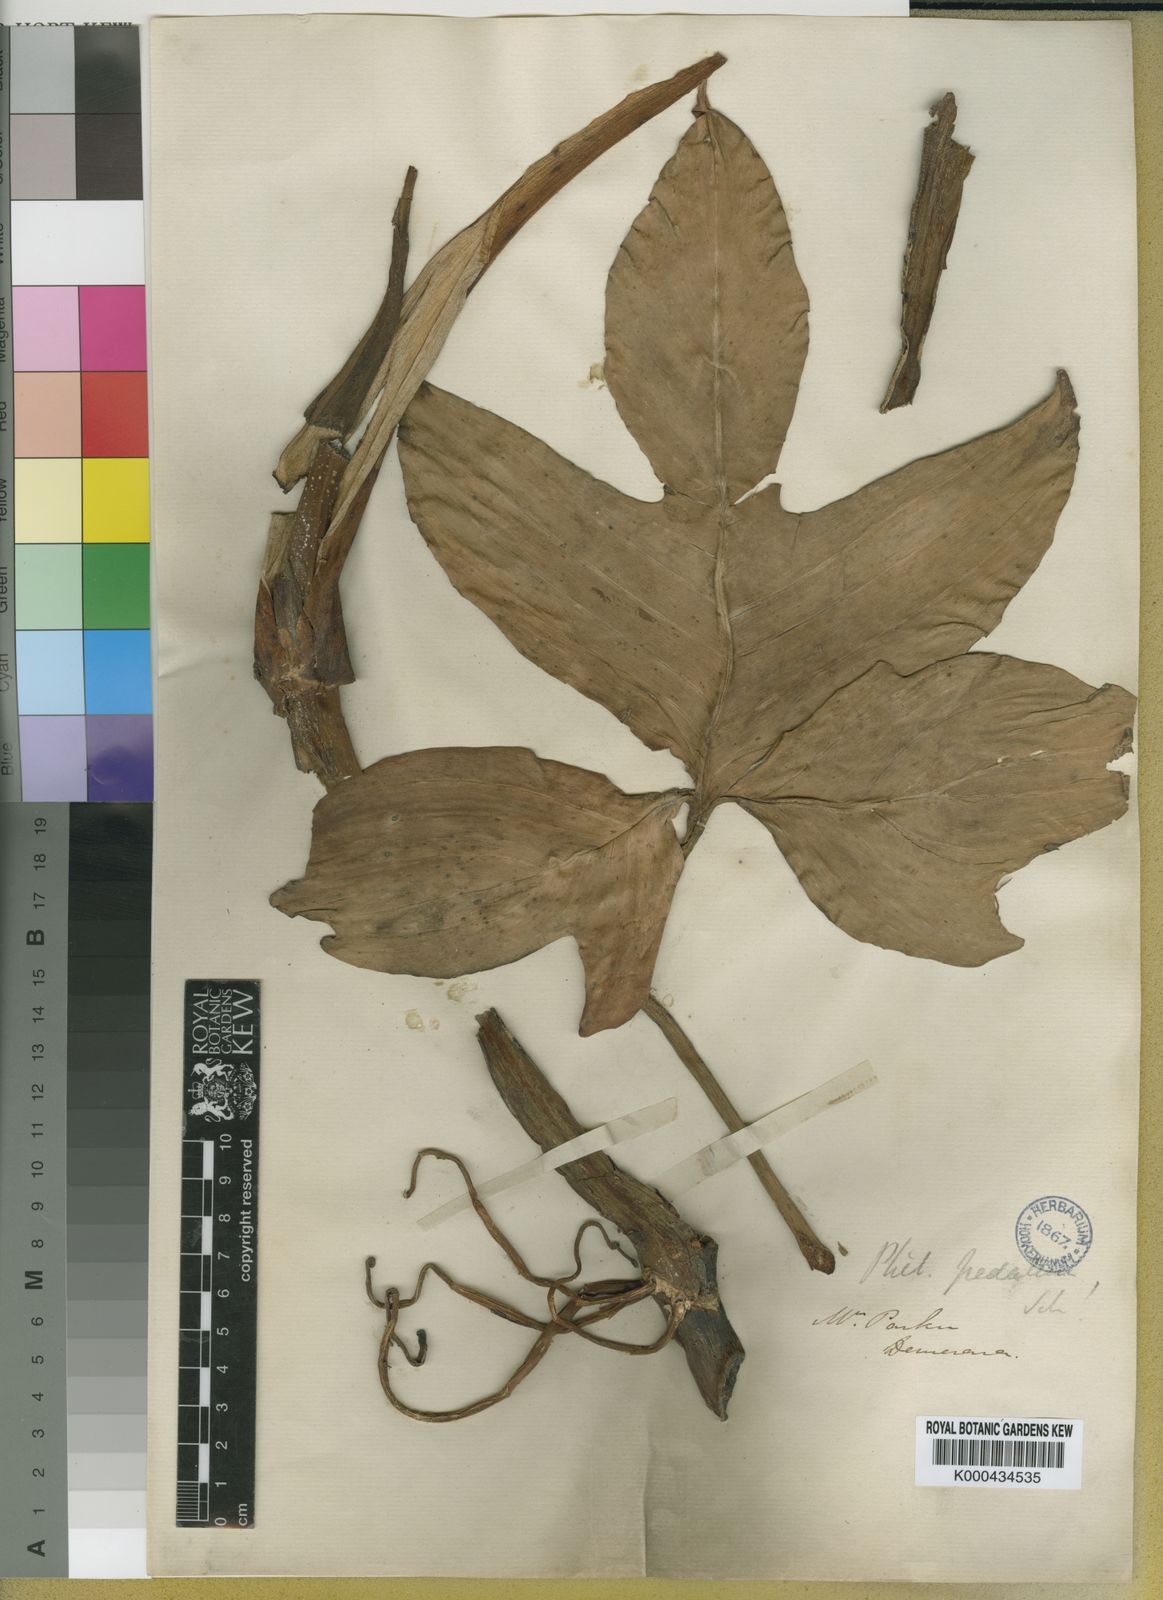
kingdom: Plantae
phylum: Tracheophyta
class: Liliopsida
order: Alismatales
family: Araceae
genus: Philodendron
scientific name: Philodendron pedatum
